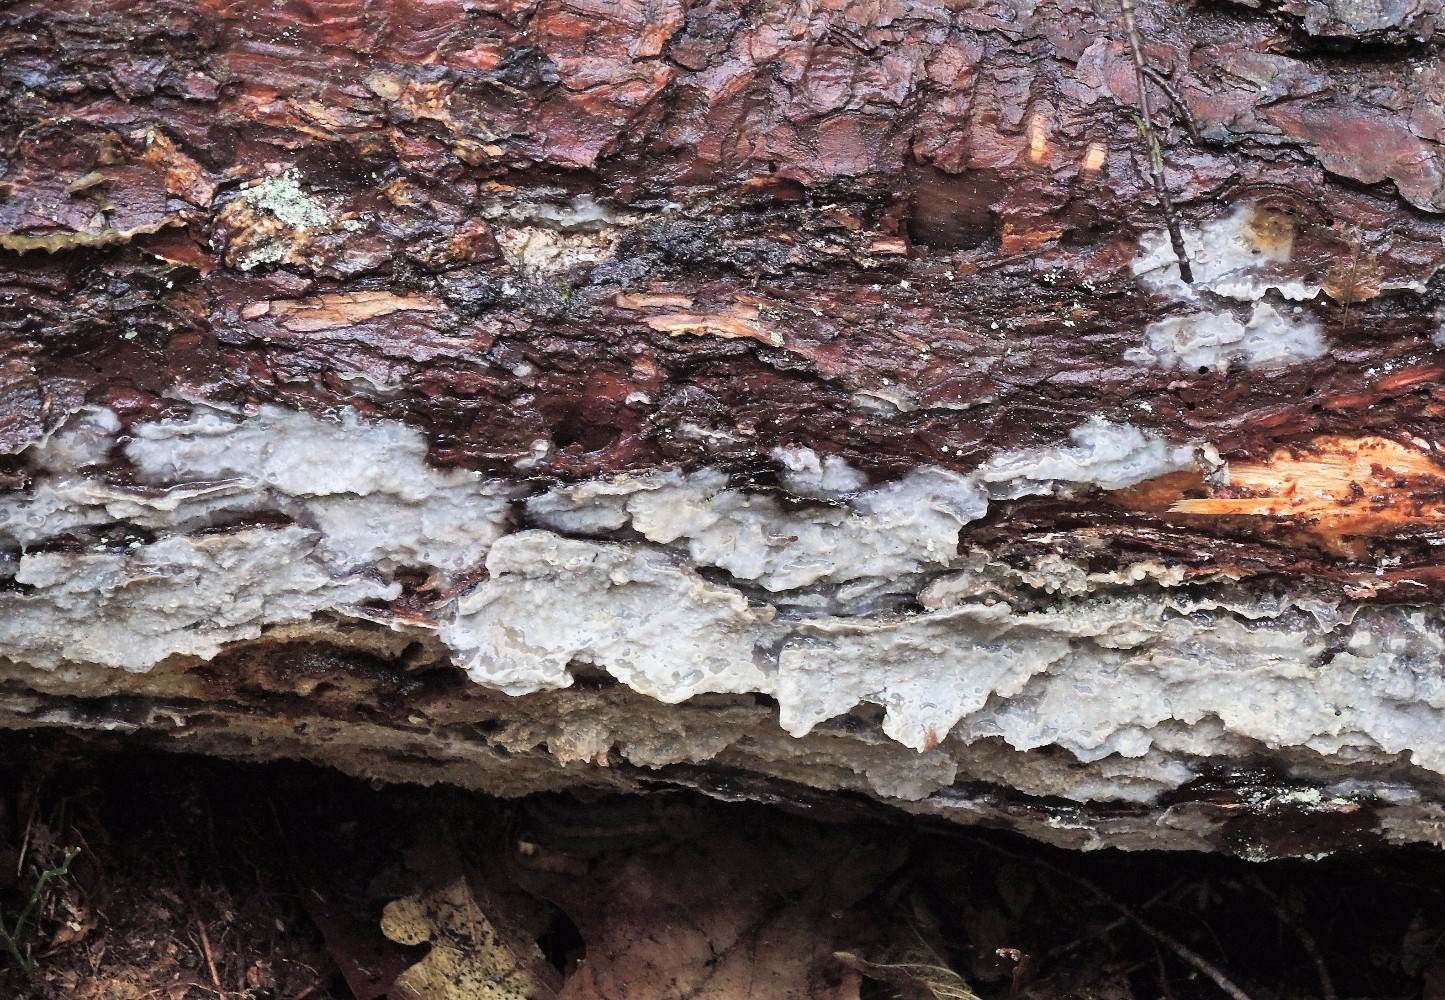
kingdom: Fungi
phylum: Basidiomycota
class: Agaricomycetes
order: Polyporales
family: Phanerochaetaceae
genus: Phlebiopsis
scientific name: Phlebiopsis gigantea
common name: kæmpebarksvamp
